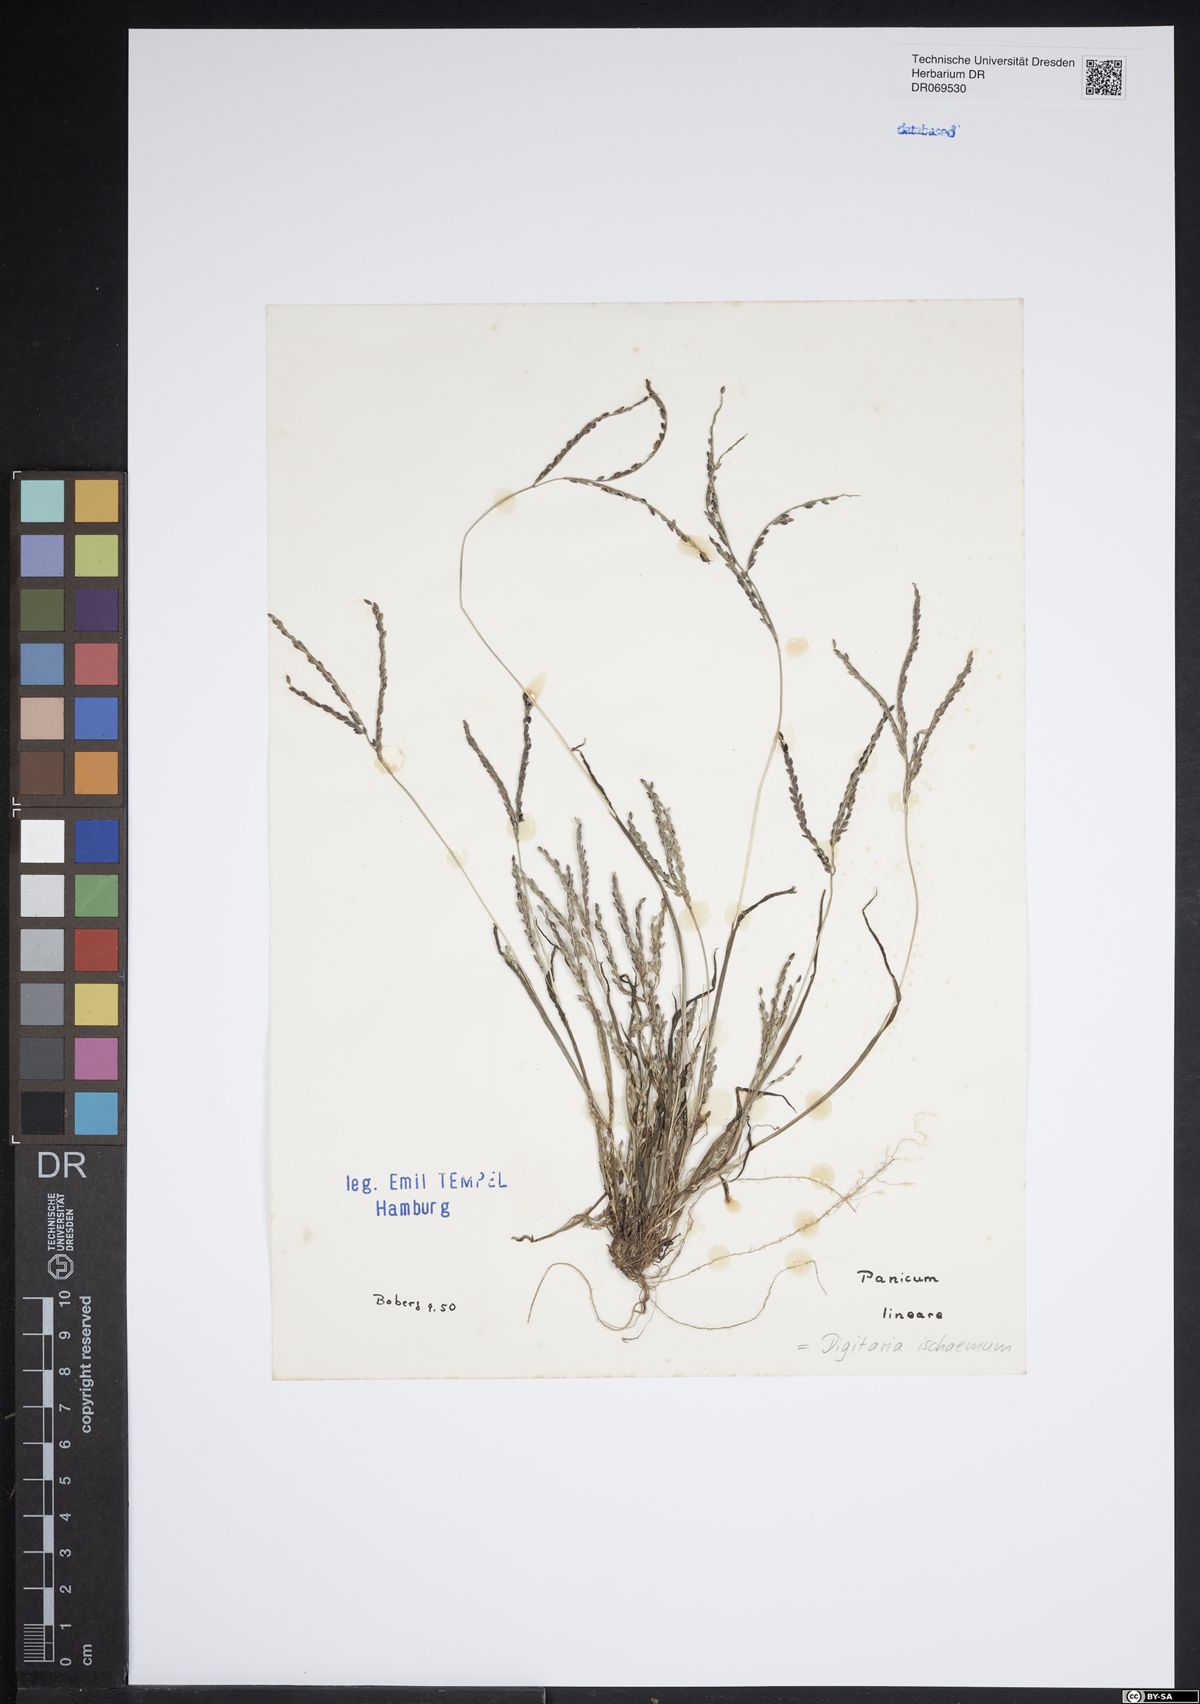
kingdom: Plantae
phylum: Tracheophyta
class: Liliopsida
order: Poales
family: Poaceae
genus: Digitaria
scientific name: Digitaria ischaemum
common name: Smooth crabgrass
